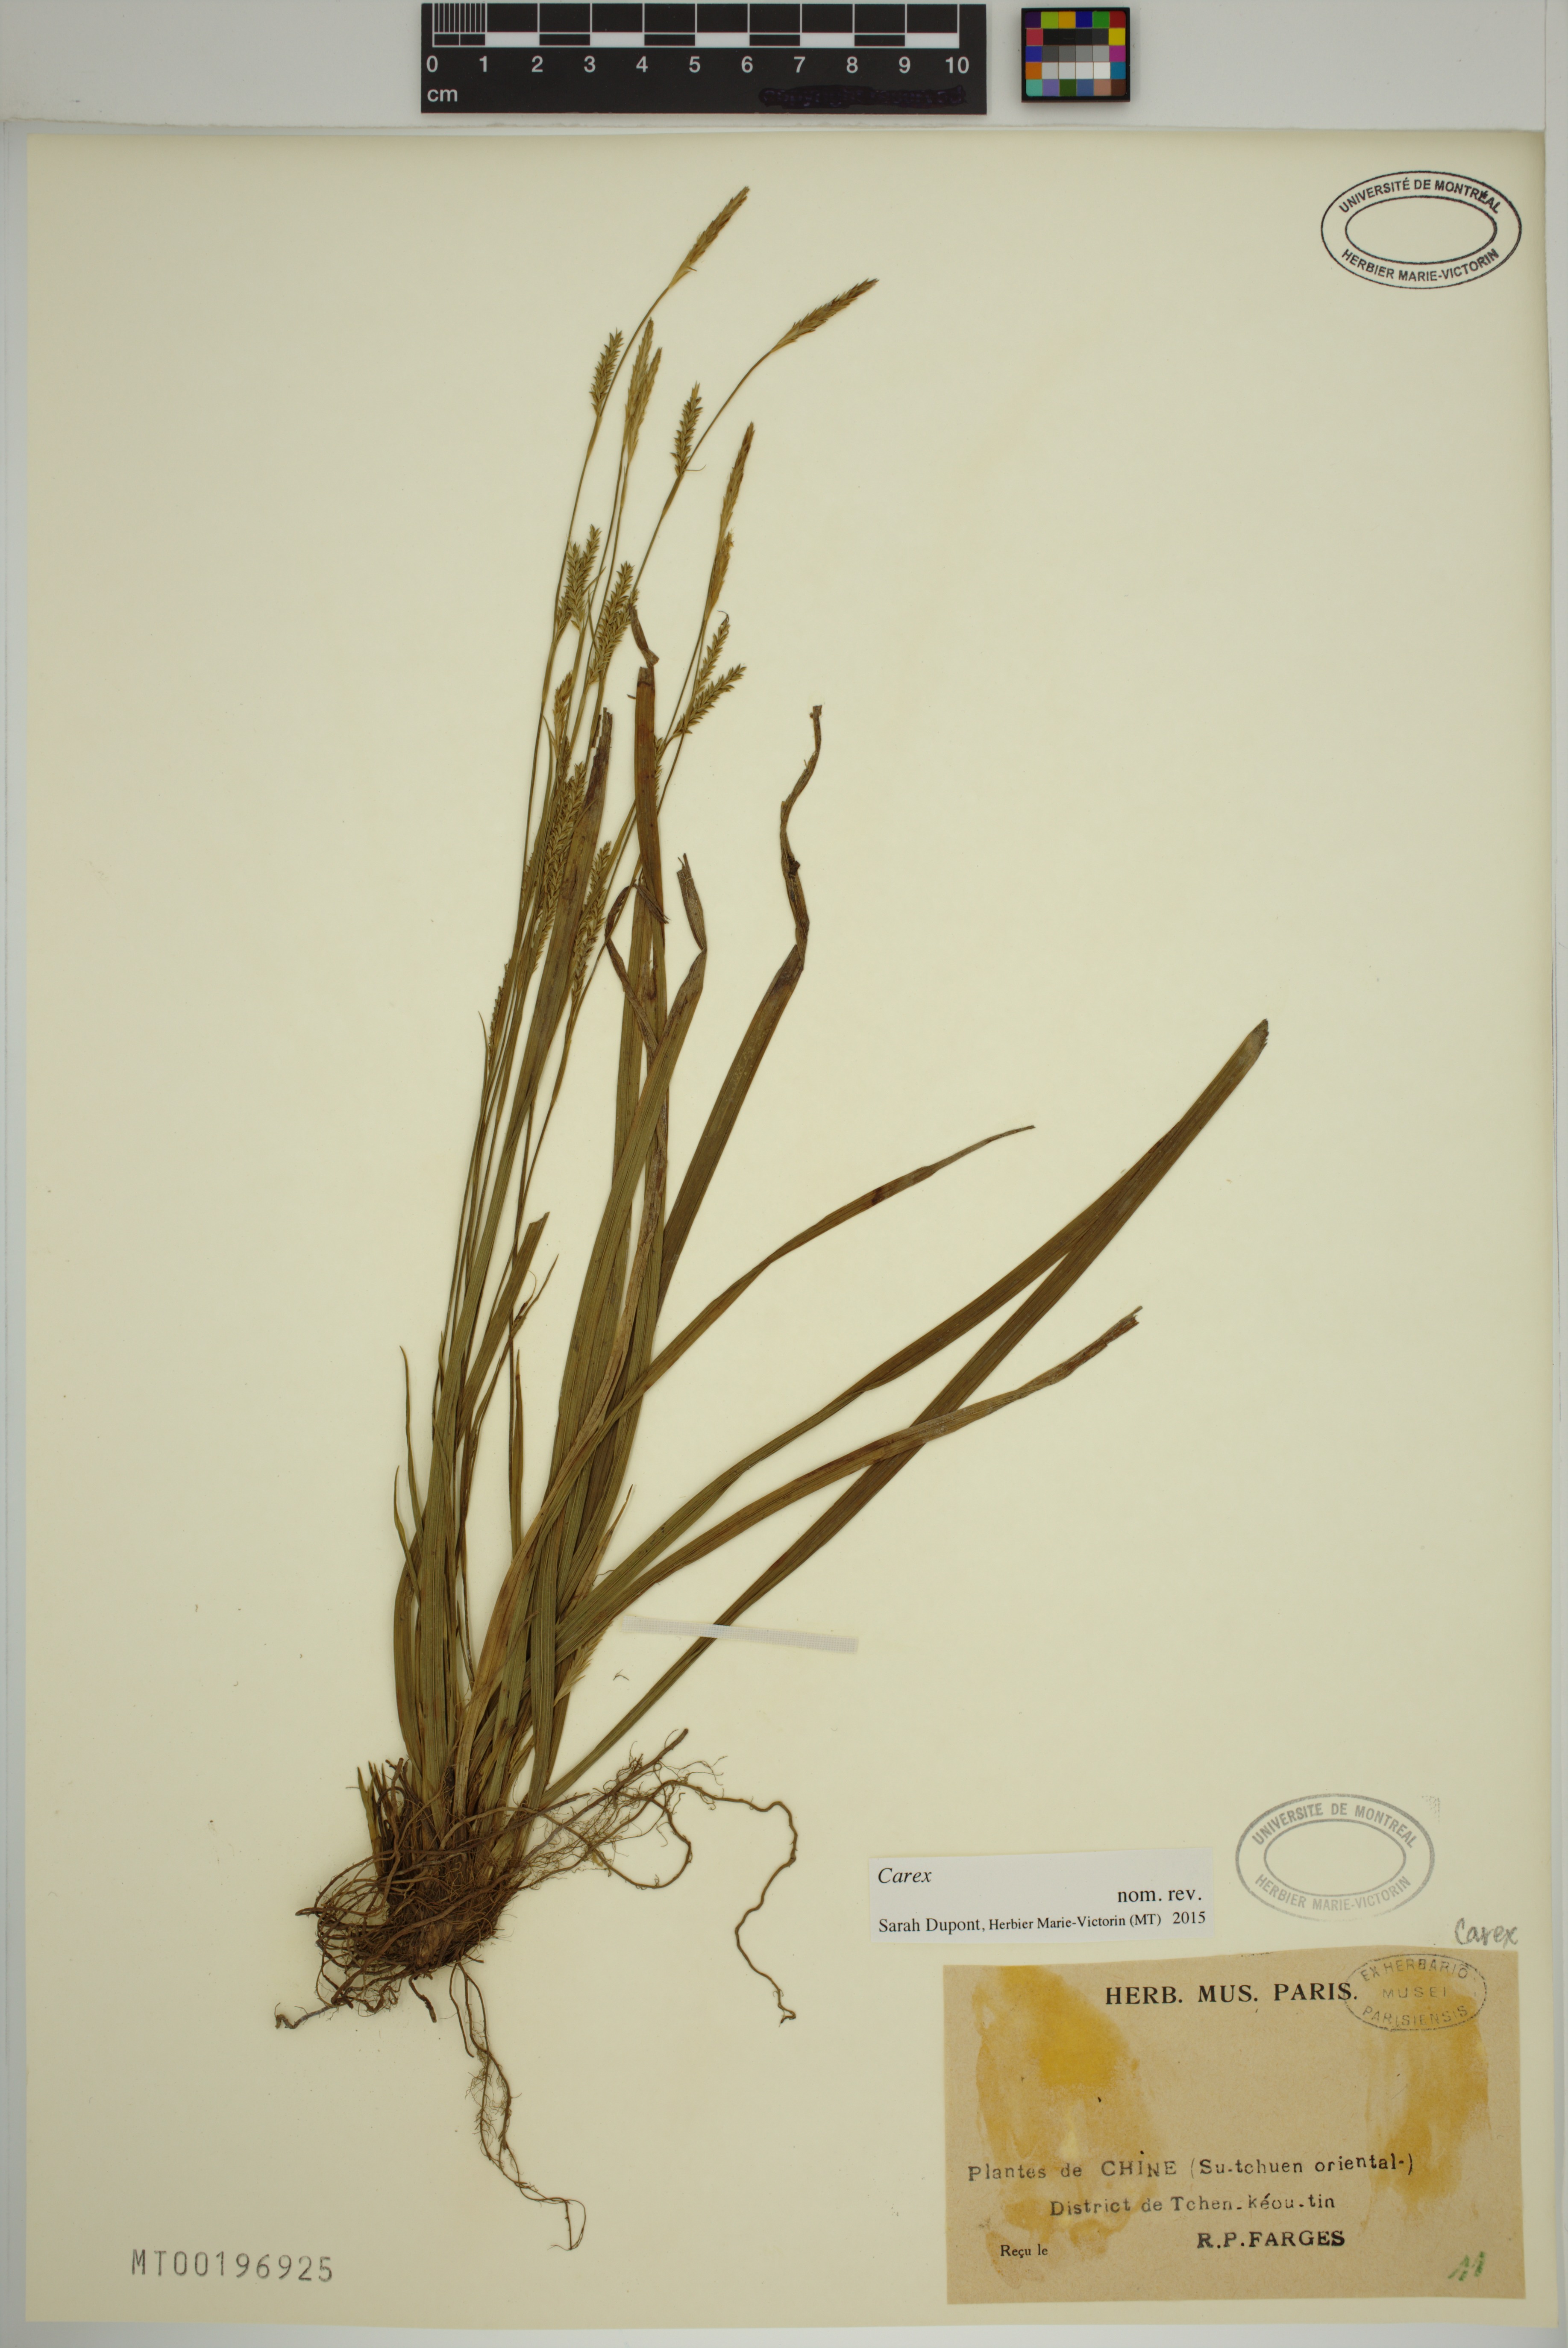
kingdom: Plantae
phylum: Tracheophyta
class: Liliopsida
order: Poales
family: Cyperaceae
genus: Carex
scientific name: Carex
